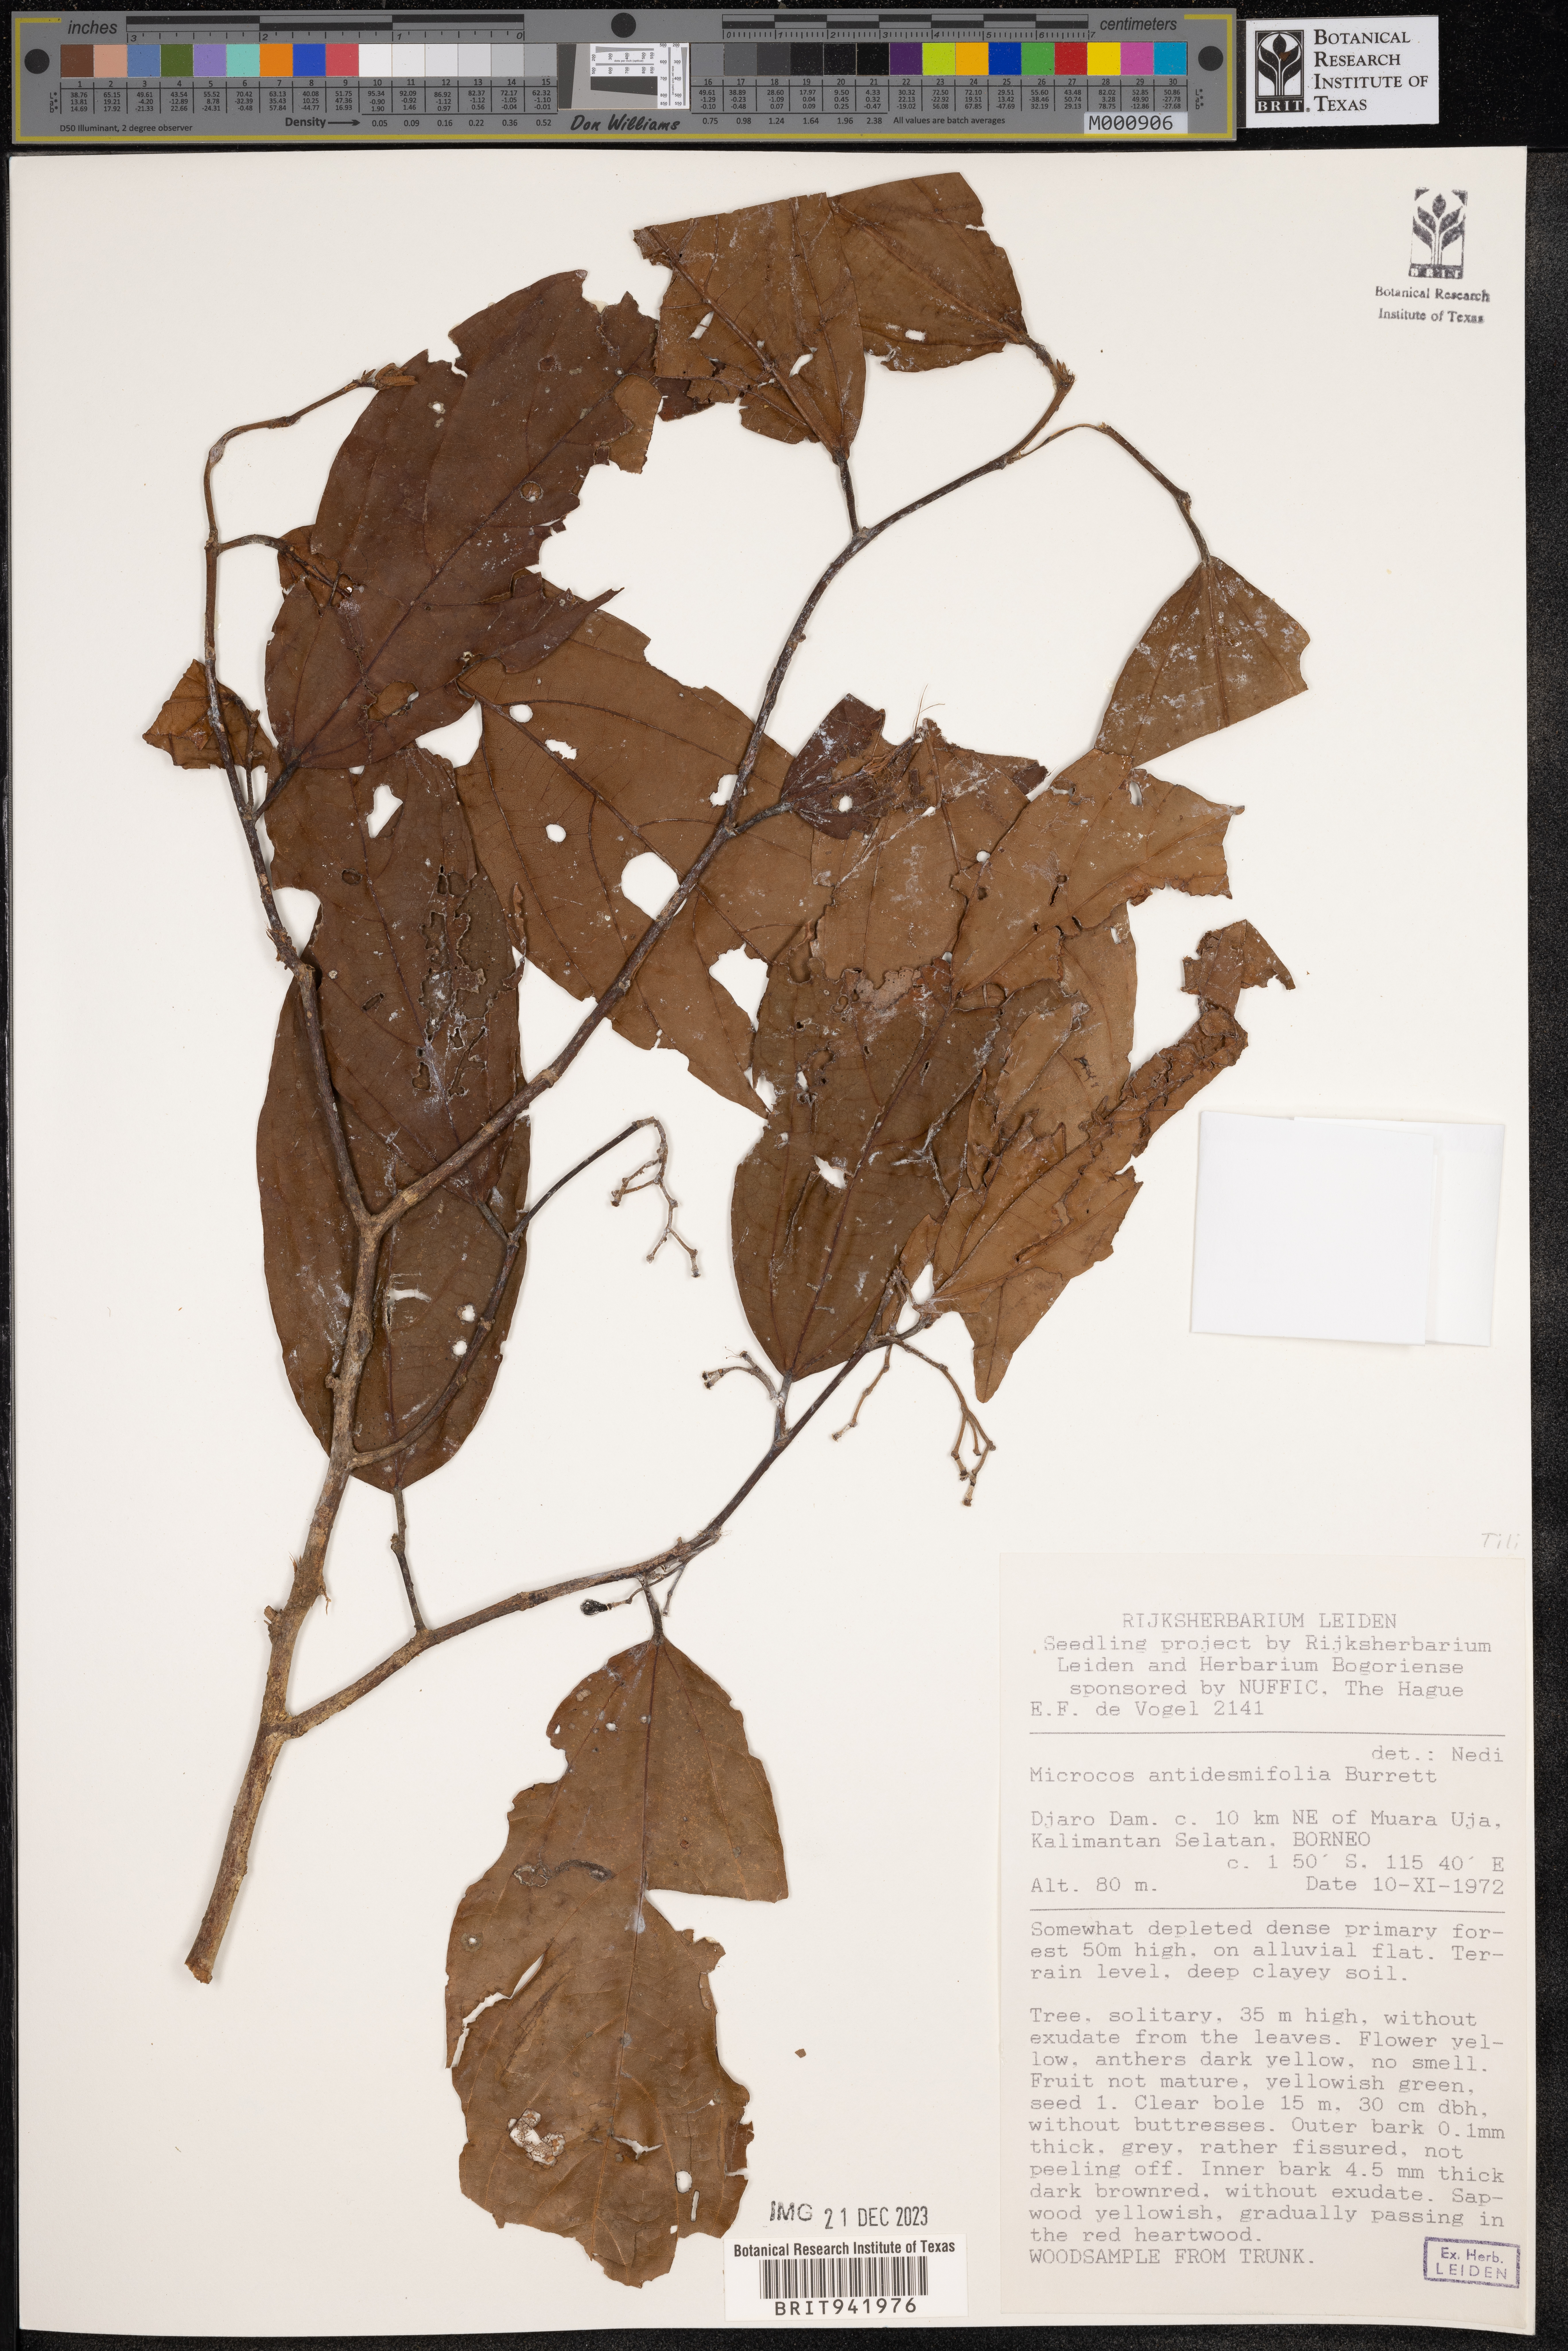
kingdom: Plantae
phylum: Tracheophyta
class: Magnoliopsida
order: Malvales
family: Malvaceae
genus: Microcos
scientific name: Microcos
